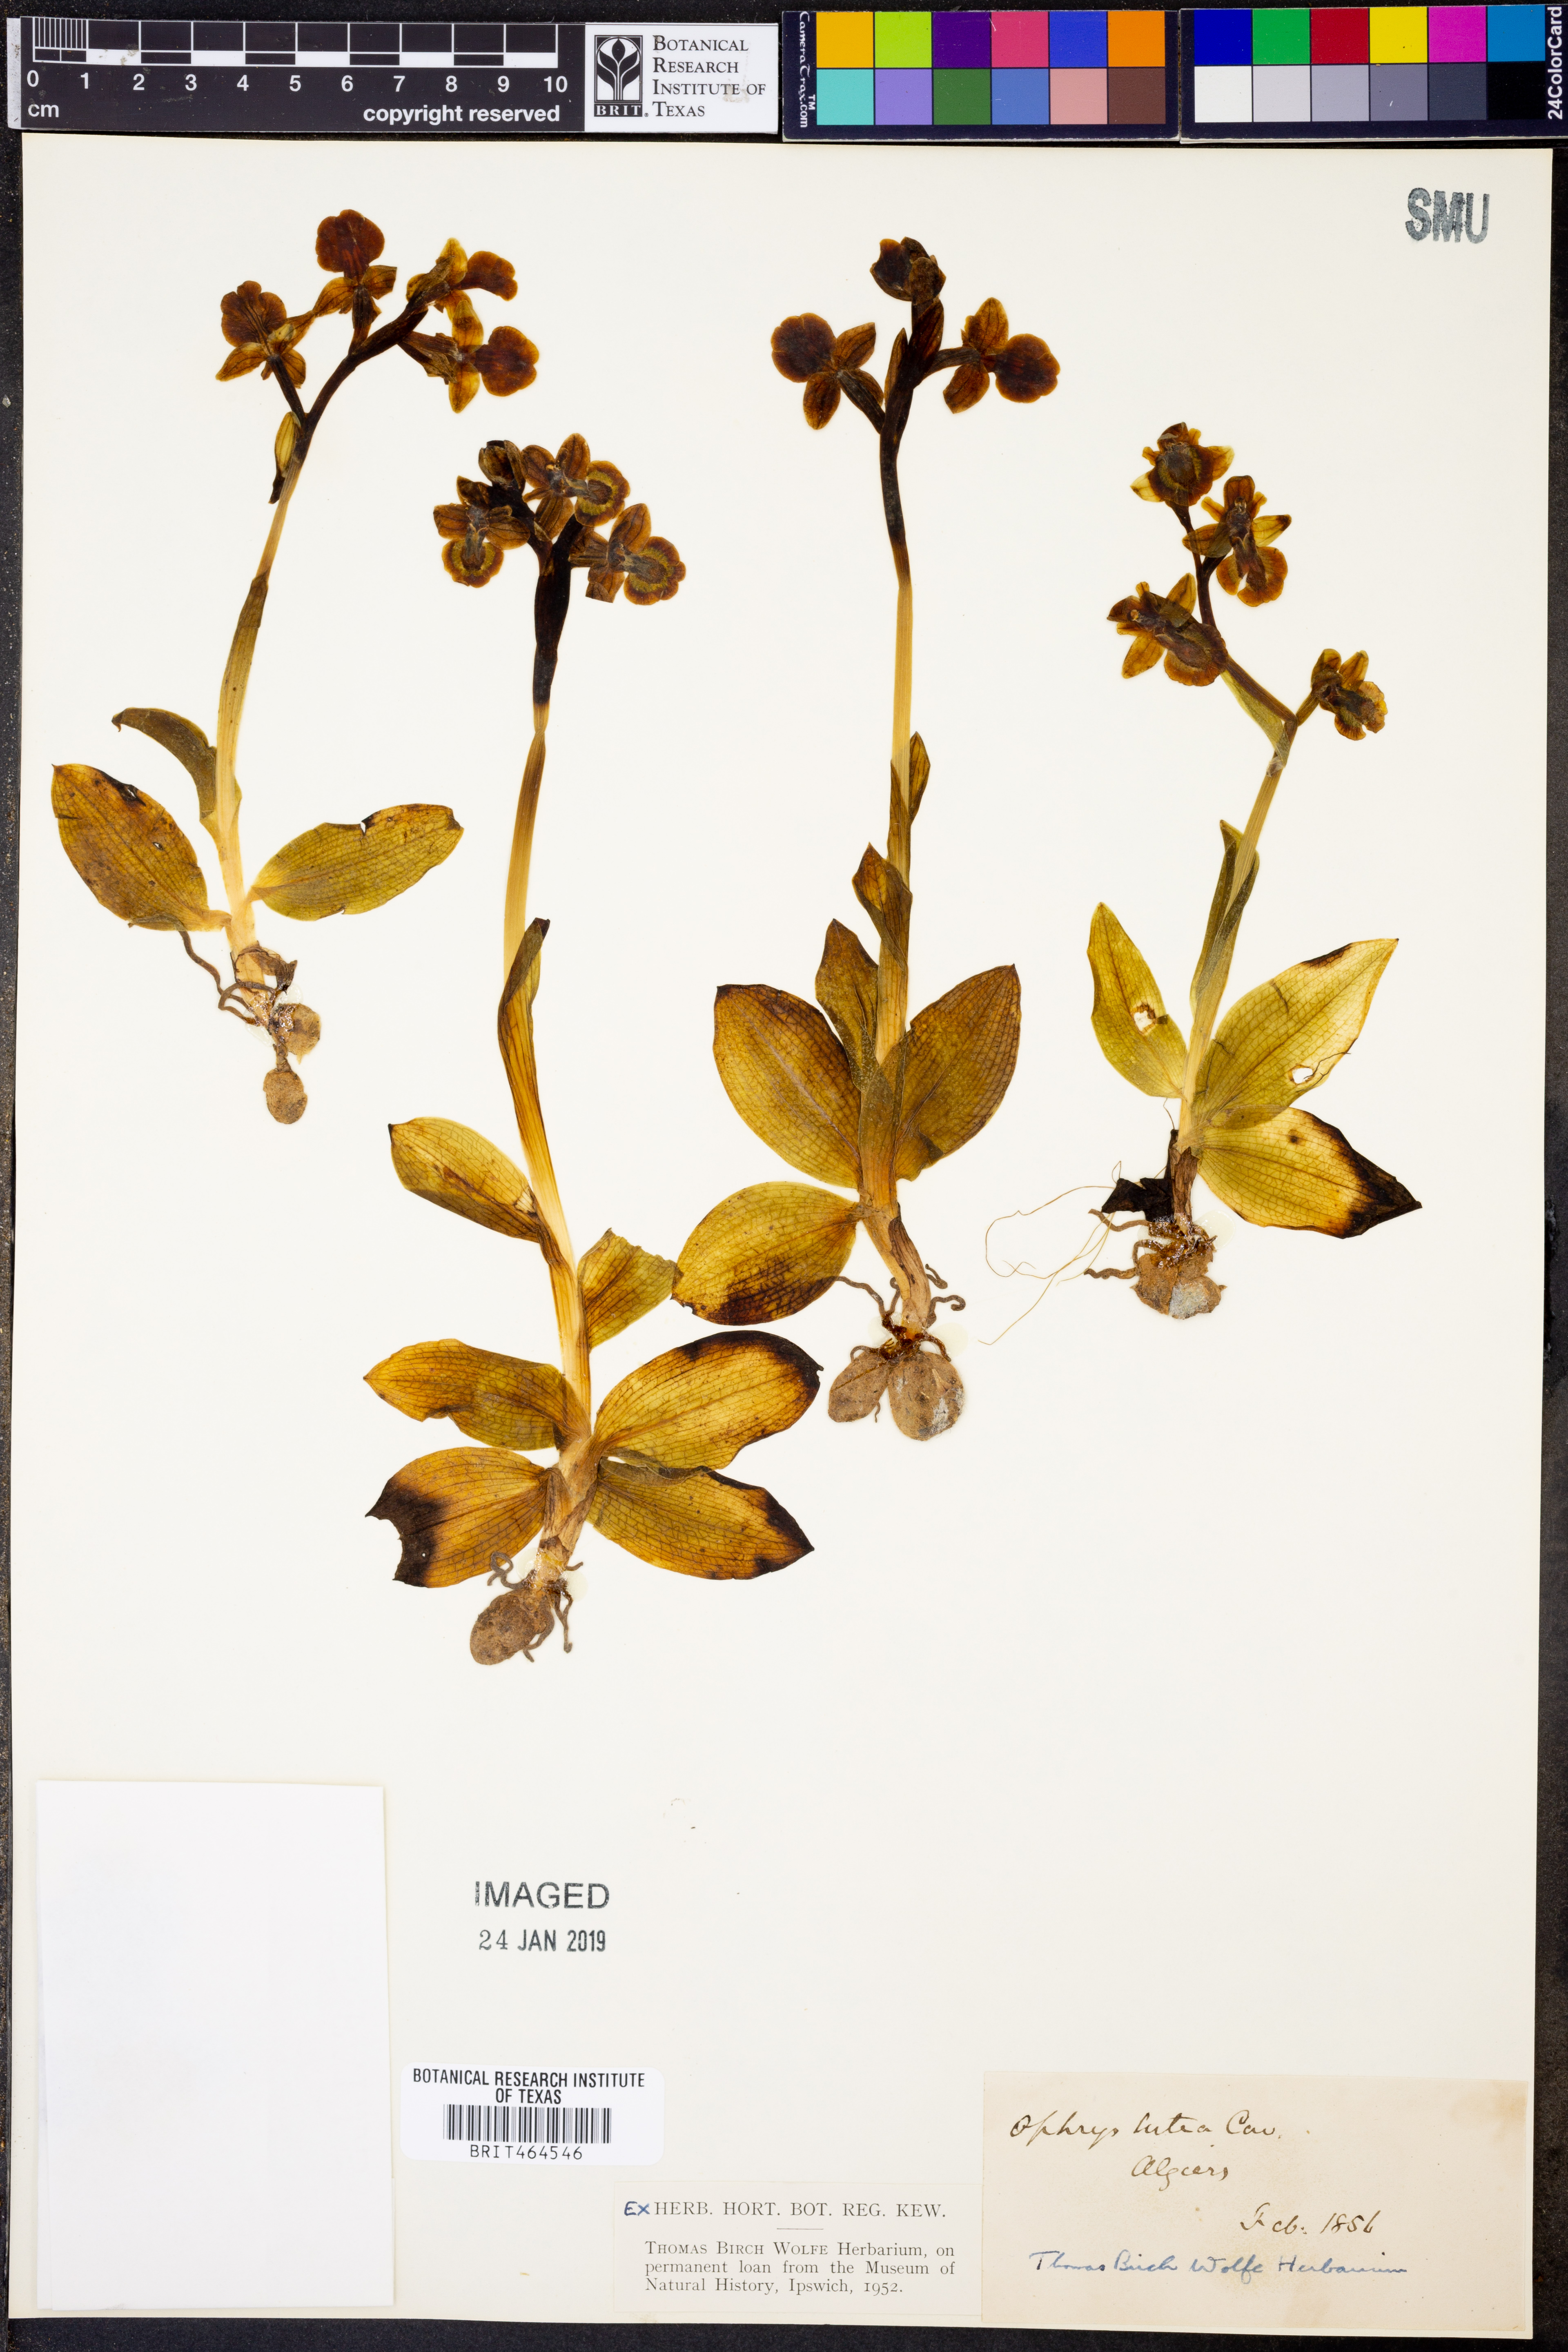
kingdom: Plantae
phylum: Tracheophyta
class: Liliopsida
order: Asparagales
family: Orchidaceae
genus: Ophrys
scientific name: Ophrys lutea
